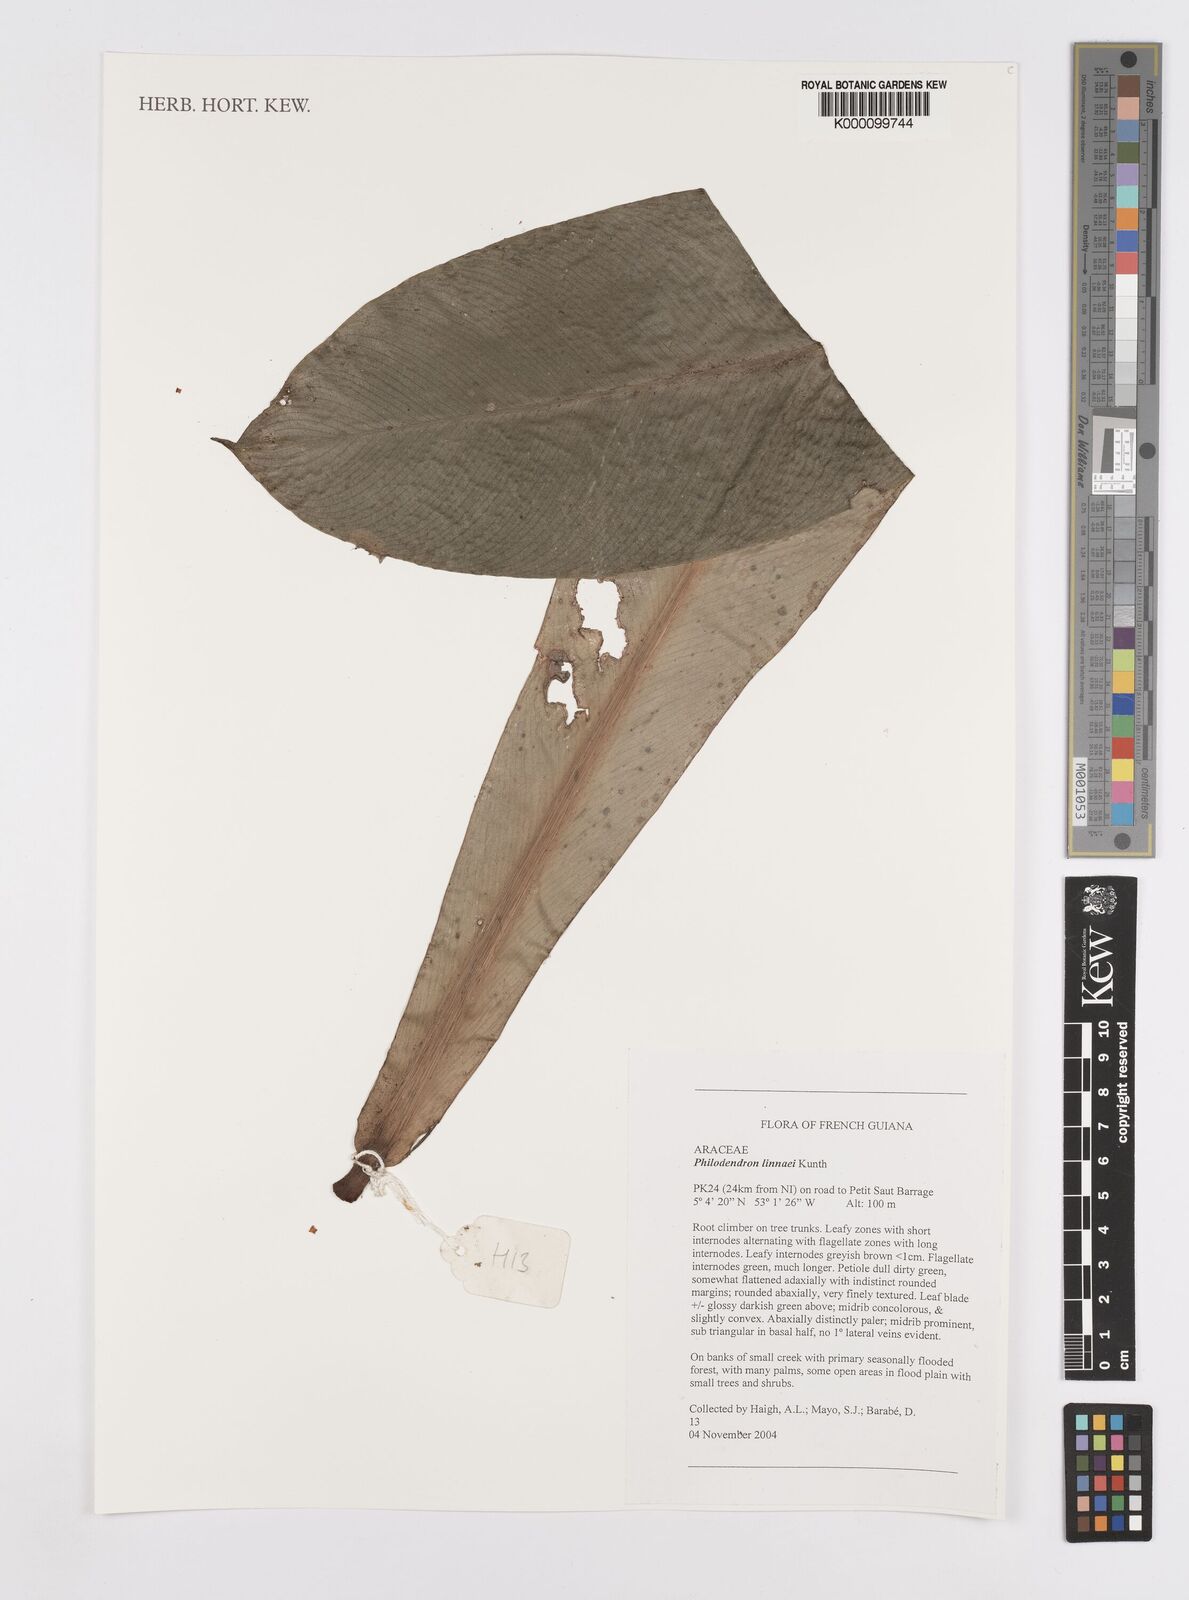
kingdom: Plantae
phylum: Tracheophyta
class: Liliopsida
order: Alismatales
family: Araceae
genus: Philodendron
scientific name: Philodendron linnaei
